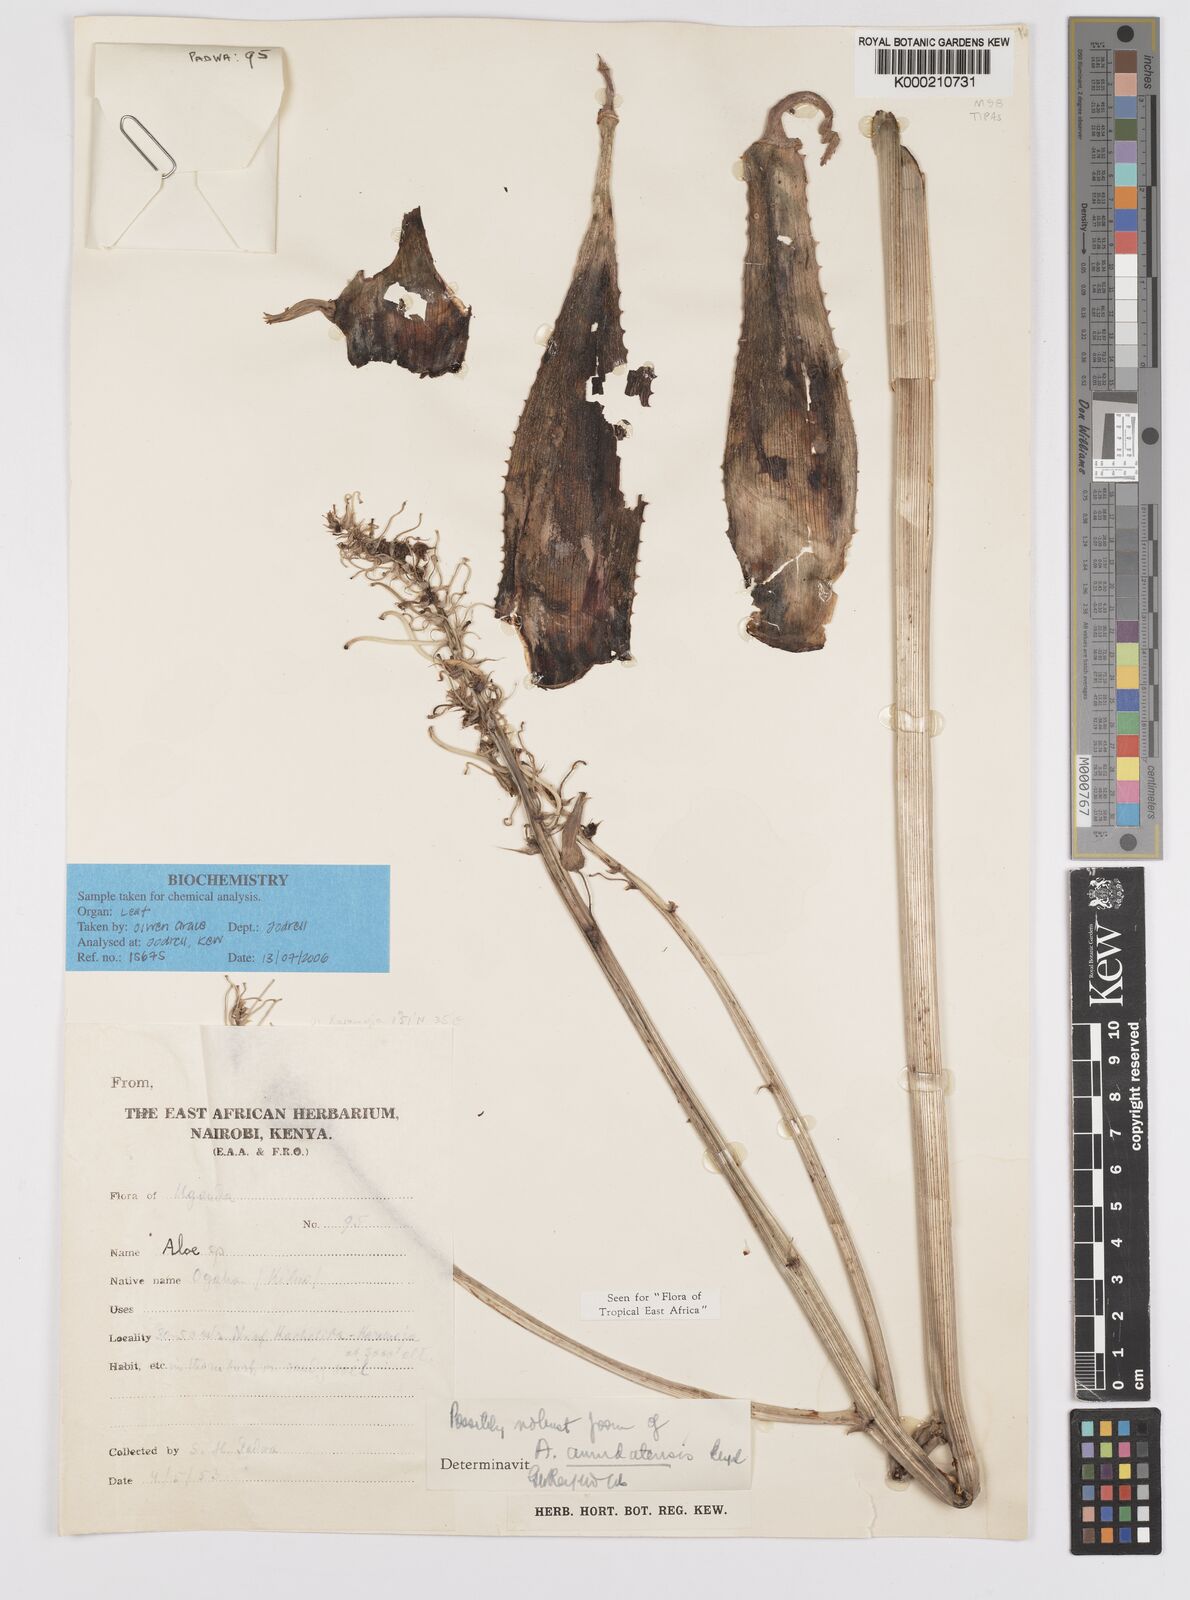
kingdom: Plantae
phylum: Tracheophyta
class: Liliopsida
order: Asparagales
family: Asphodelaceae
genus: Aloe
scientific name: Aloe amudatensis
